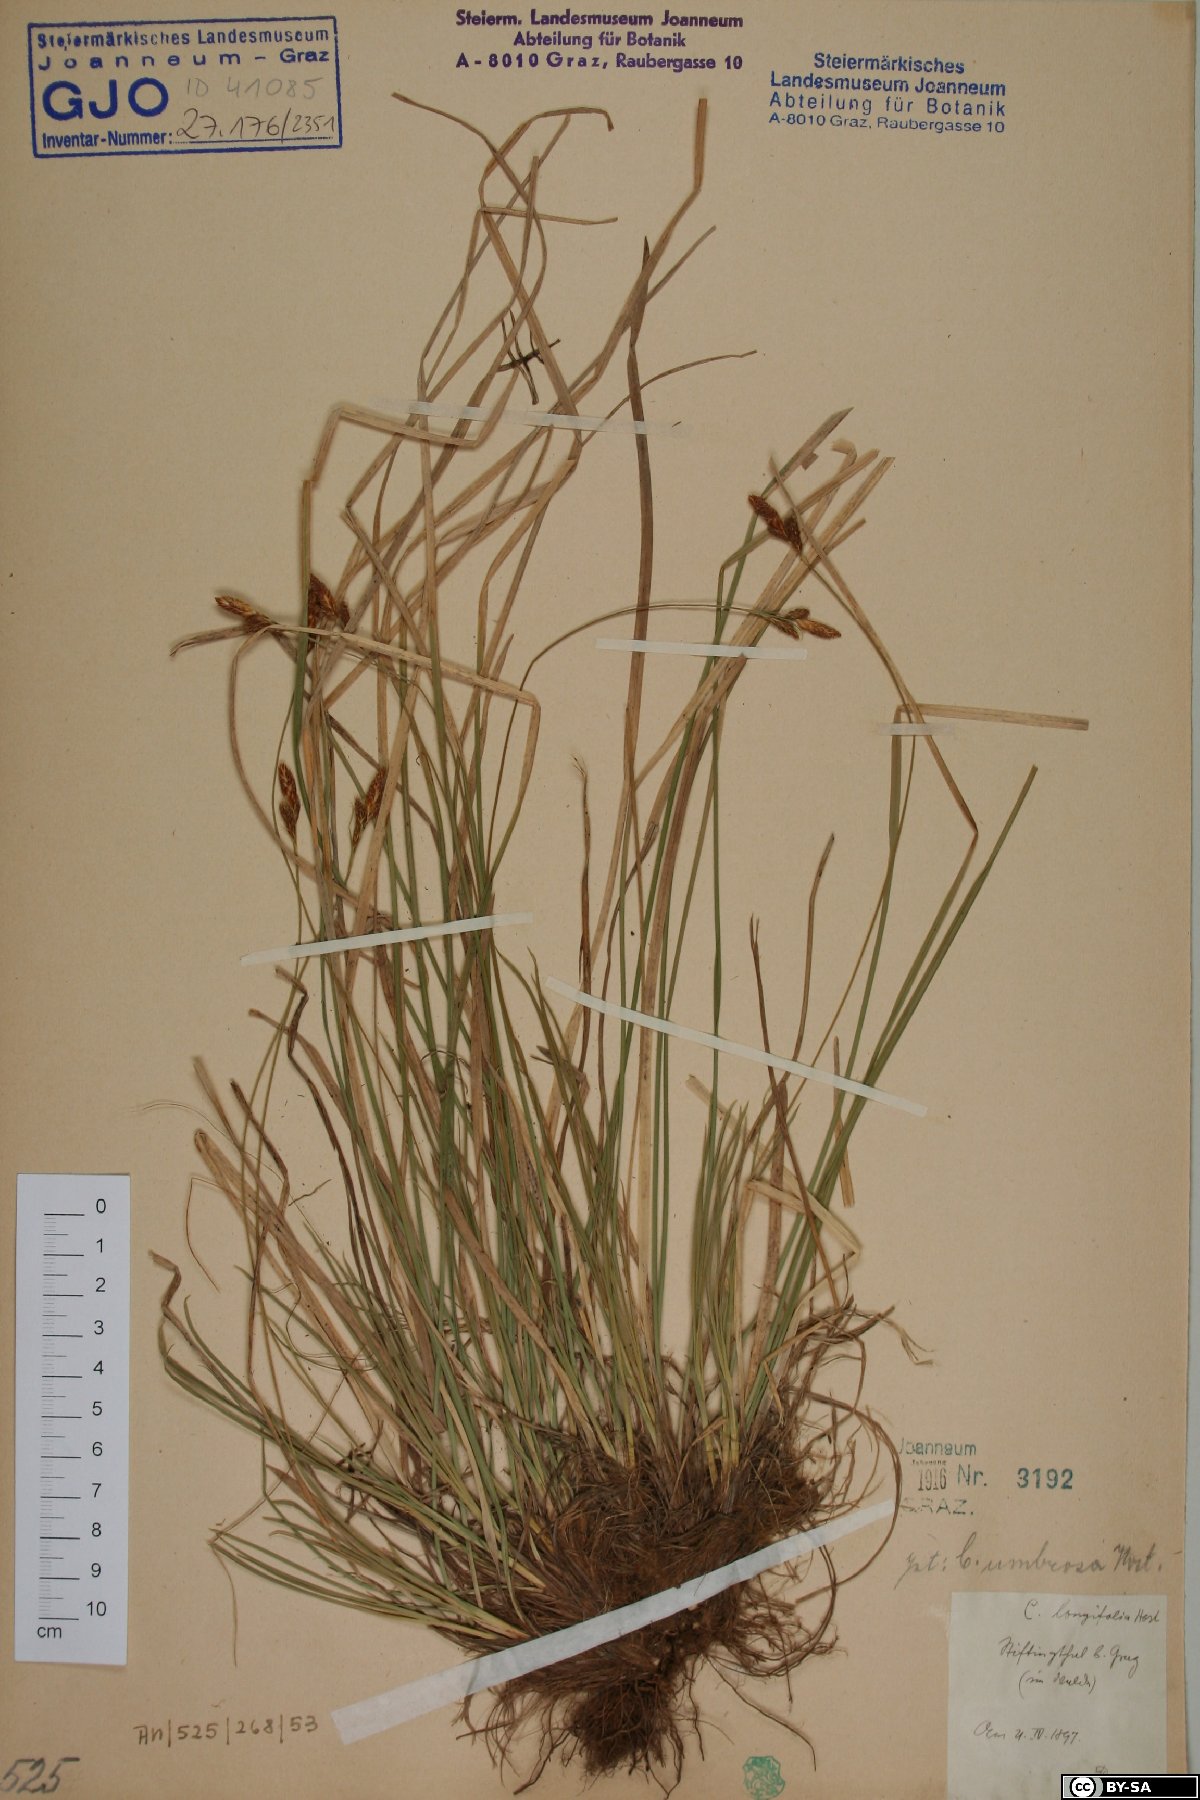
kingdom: Plantae
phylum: Tracheophyta
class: Liliopsida
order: Poales
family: Cyperaceae
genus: Carex
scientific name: Carex umbrosa
